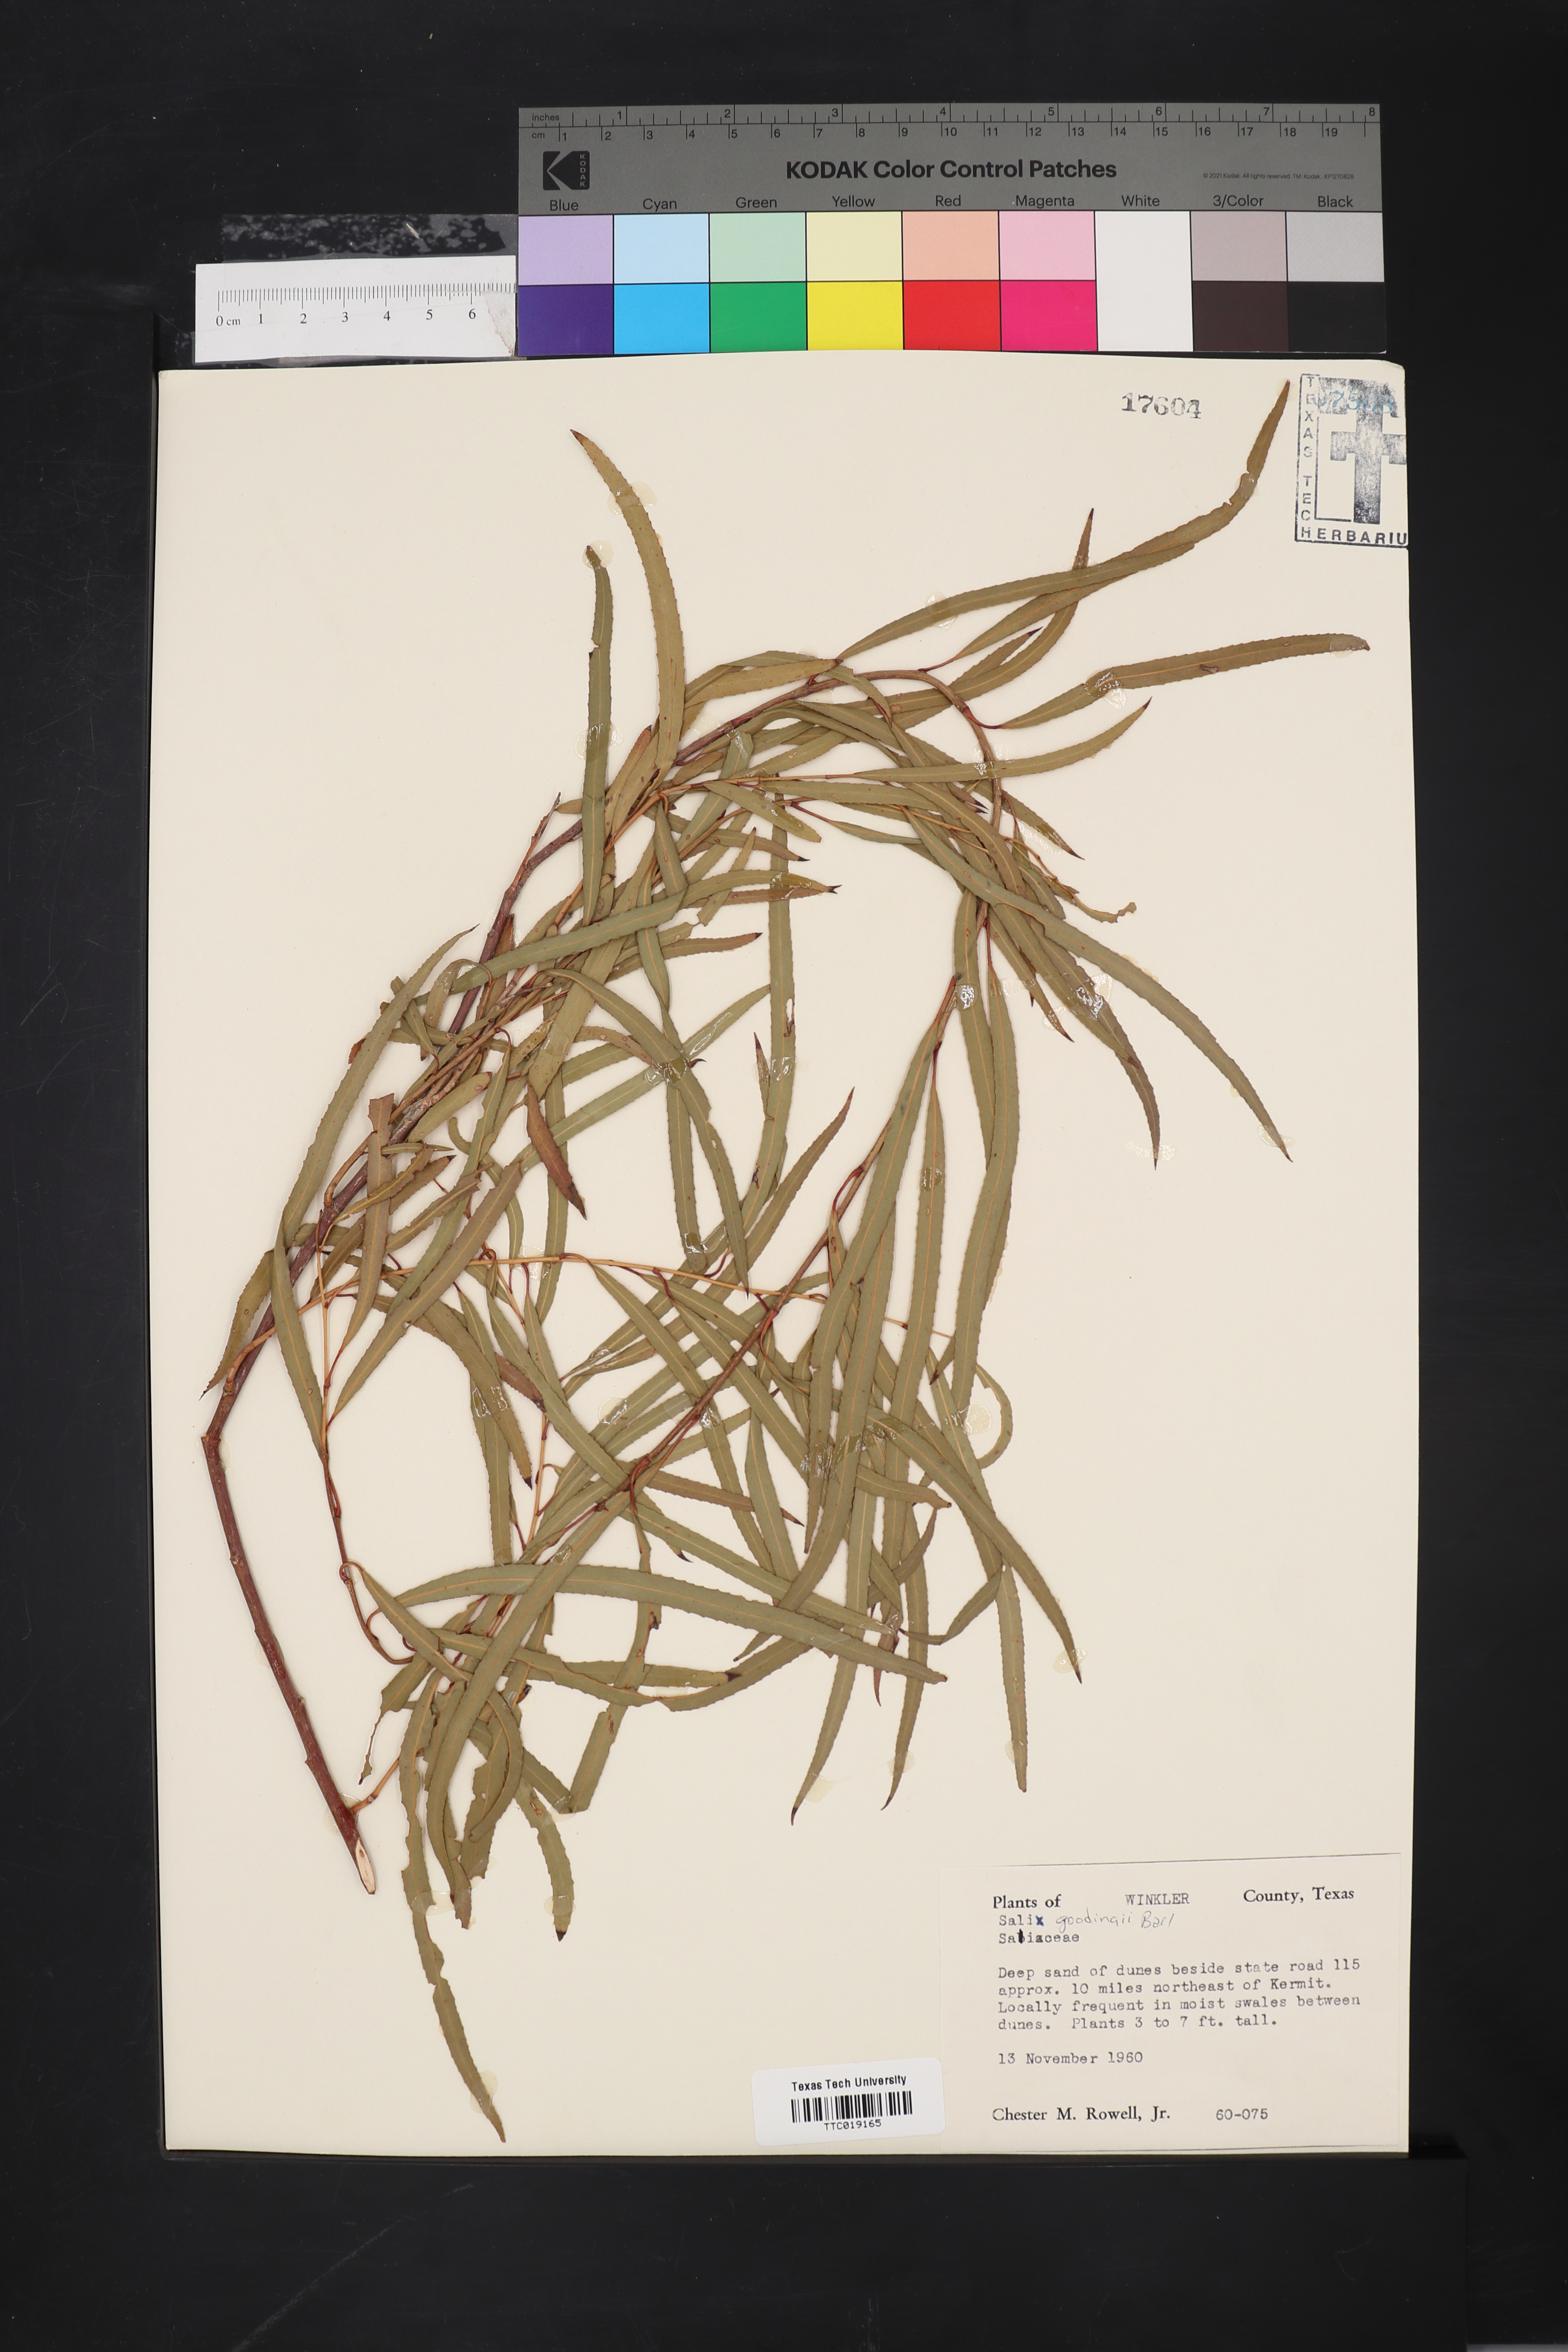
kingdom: Plantae
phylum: Tracheophyta
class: Magnoliopsida
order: Malpighiales
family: Salicaceae
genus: Salix
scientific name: Salix gooddingii
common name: Goodding's willow
